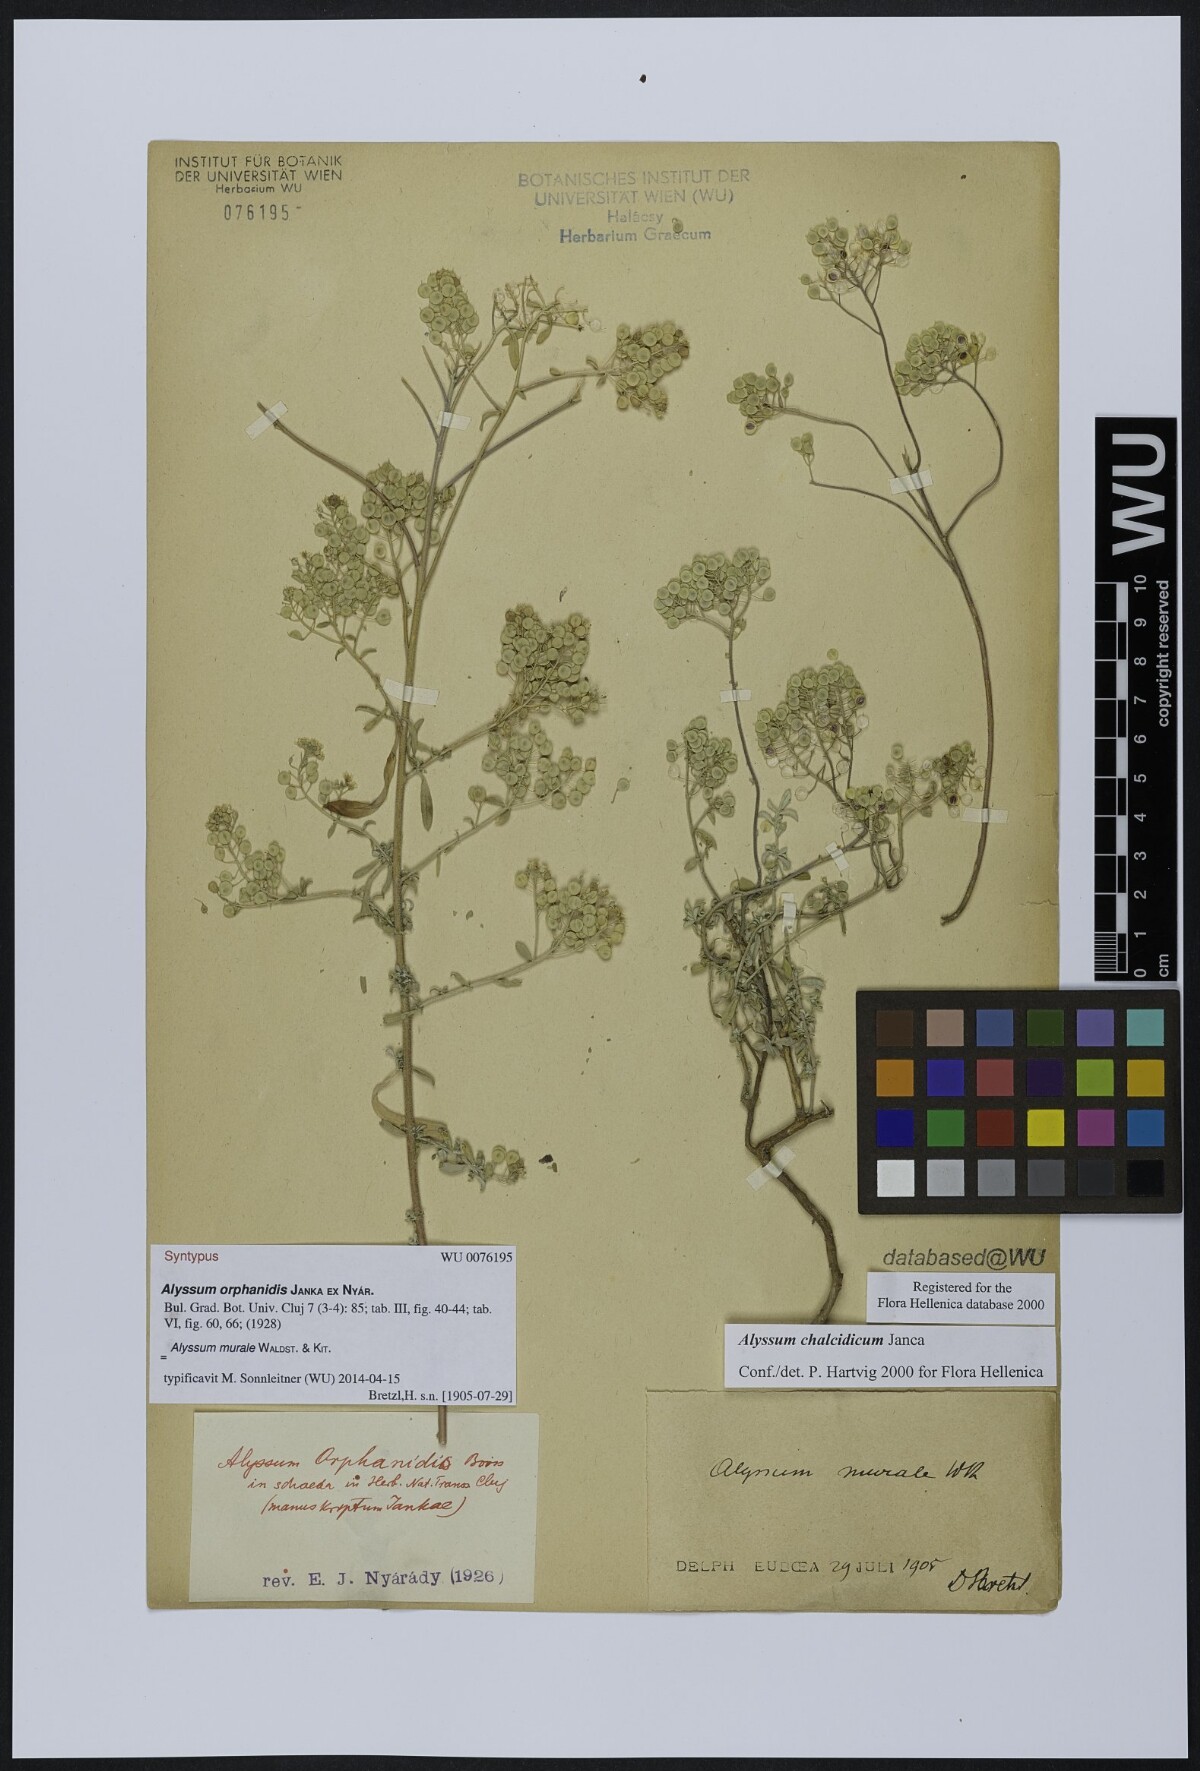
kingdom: Plantae
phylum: Tracheophyta
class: Magnoliopsida
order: Brassicales
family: Brassicaceae
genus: Odontarrhena
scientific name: Odontarrhena muralis
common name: Rock alyssum
